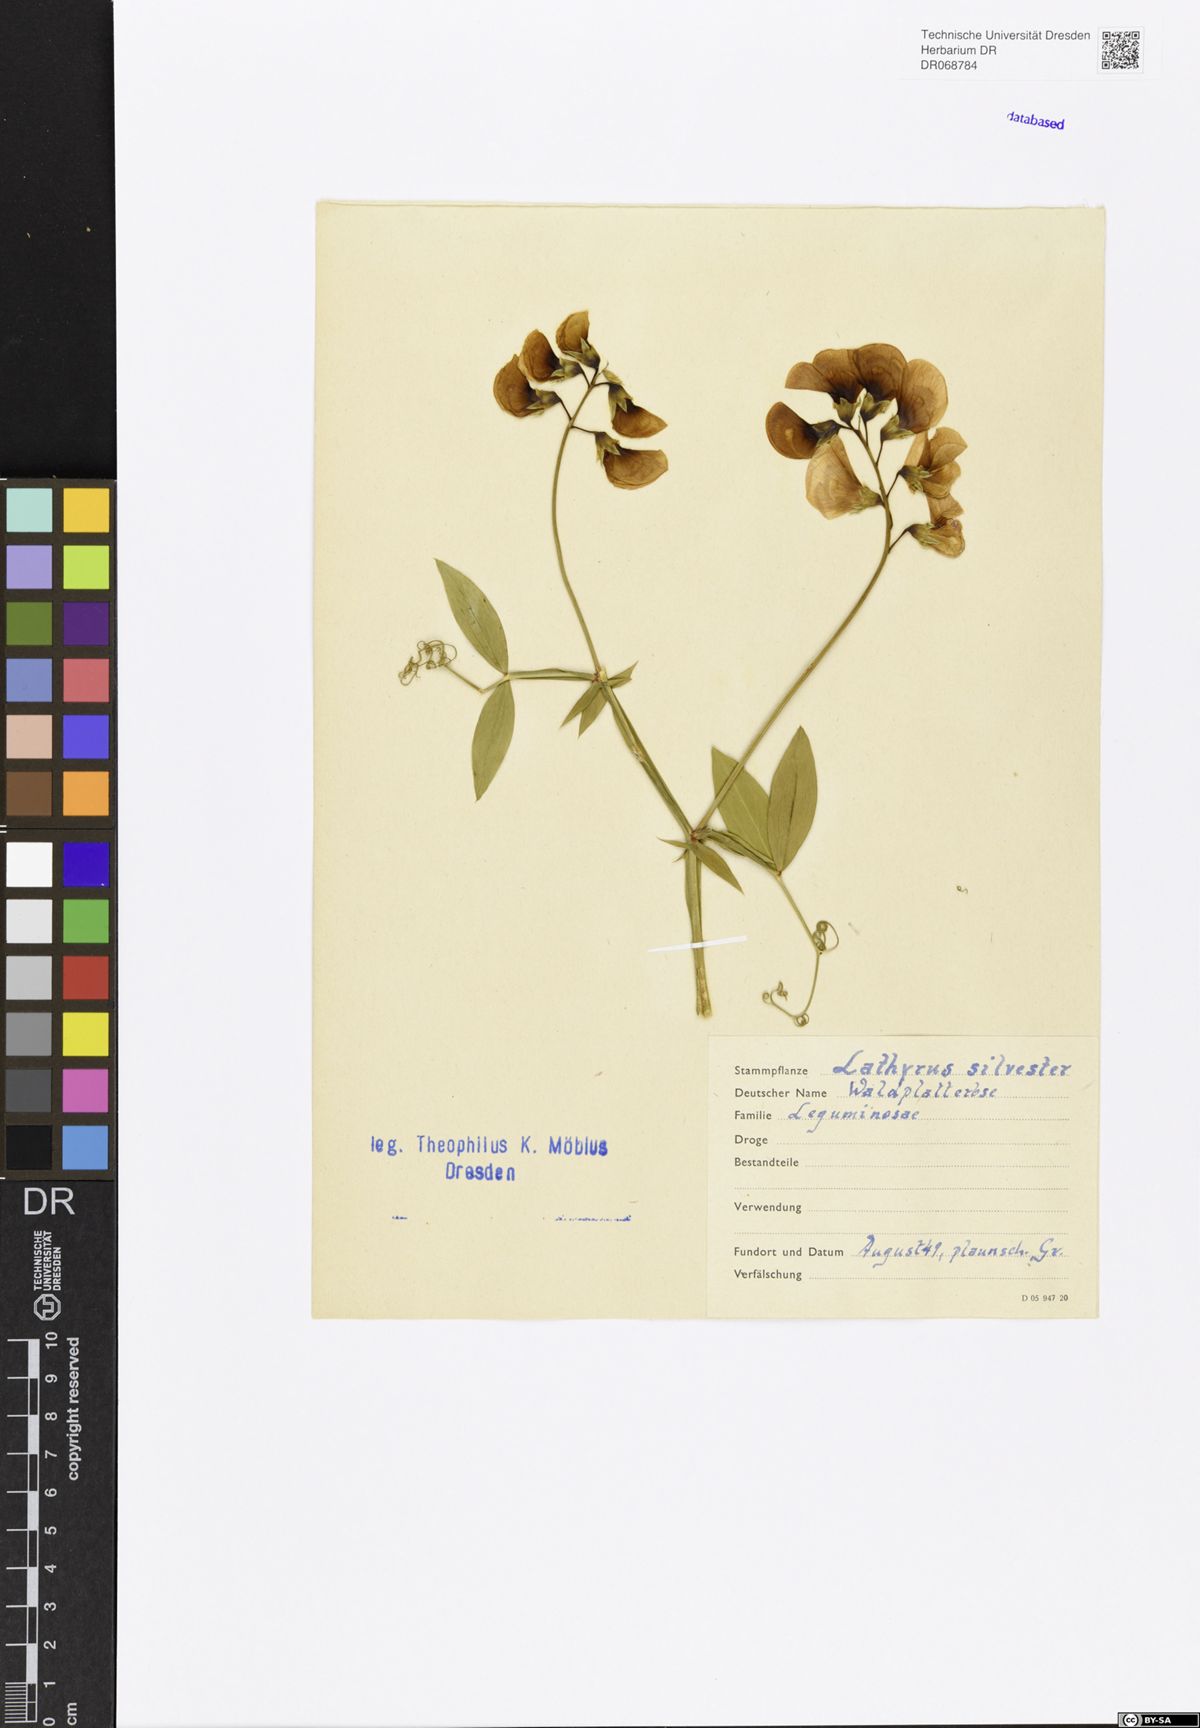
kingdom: Plantae
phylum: Tracheophyta
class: Magnoliopsida
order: Fabales
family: Fabaceae
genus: Lathyrus
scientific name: Lathyrus sylvestris
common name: Flat pea
